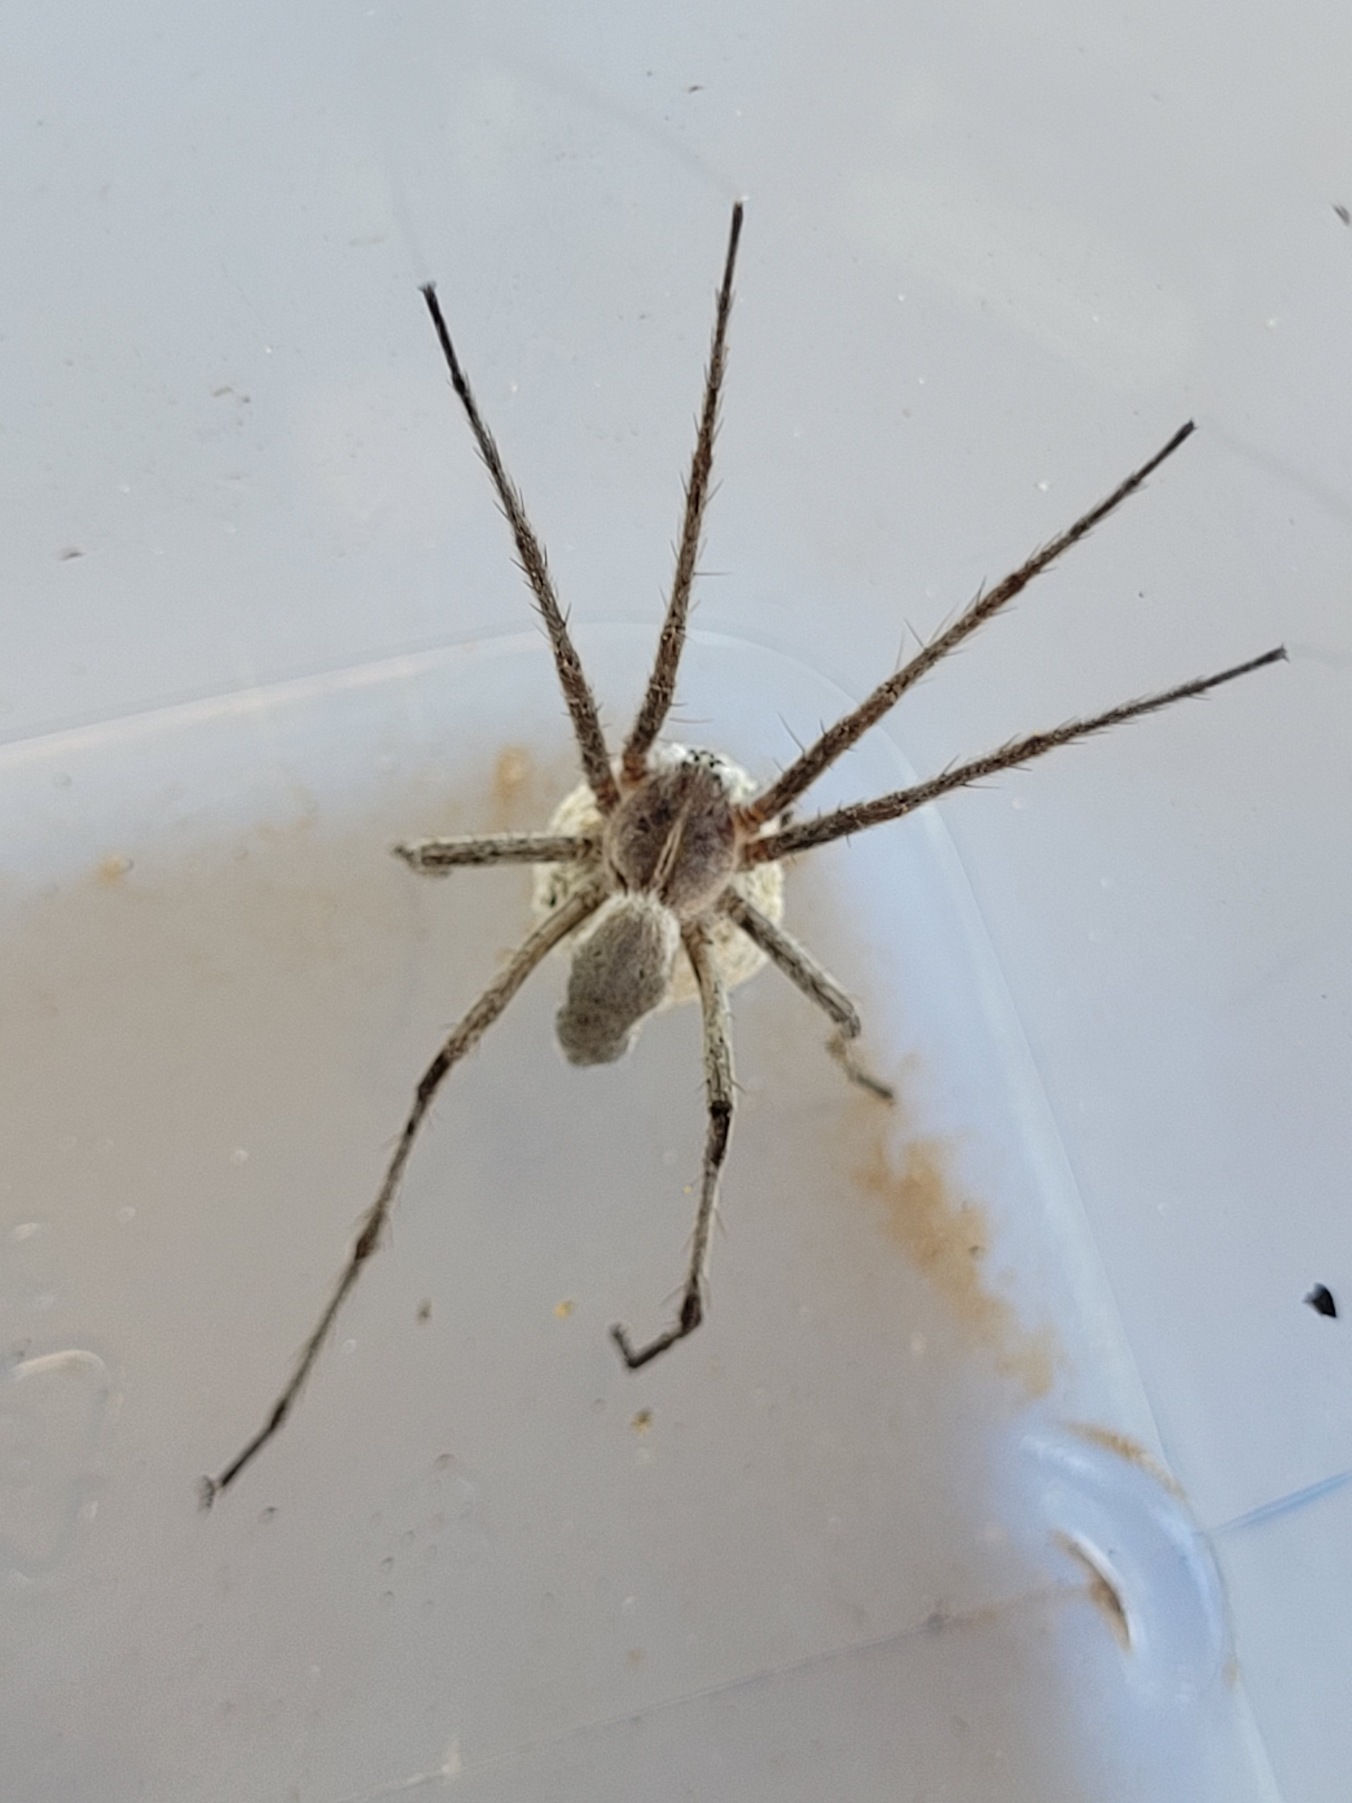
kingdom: Animalia
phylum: Arthropoda
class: Arachnida
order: Araneae
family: Pisauridae
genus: Pisaura
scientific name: Pisaura mirabilis
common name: Almindelig rovedderkop
